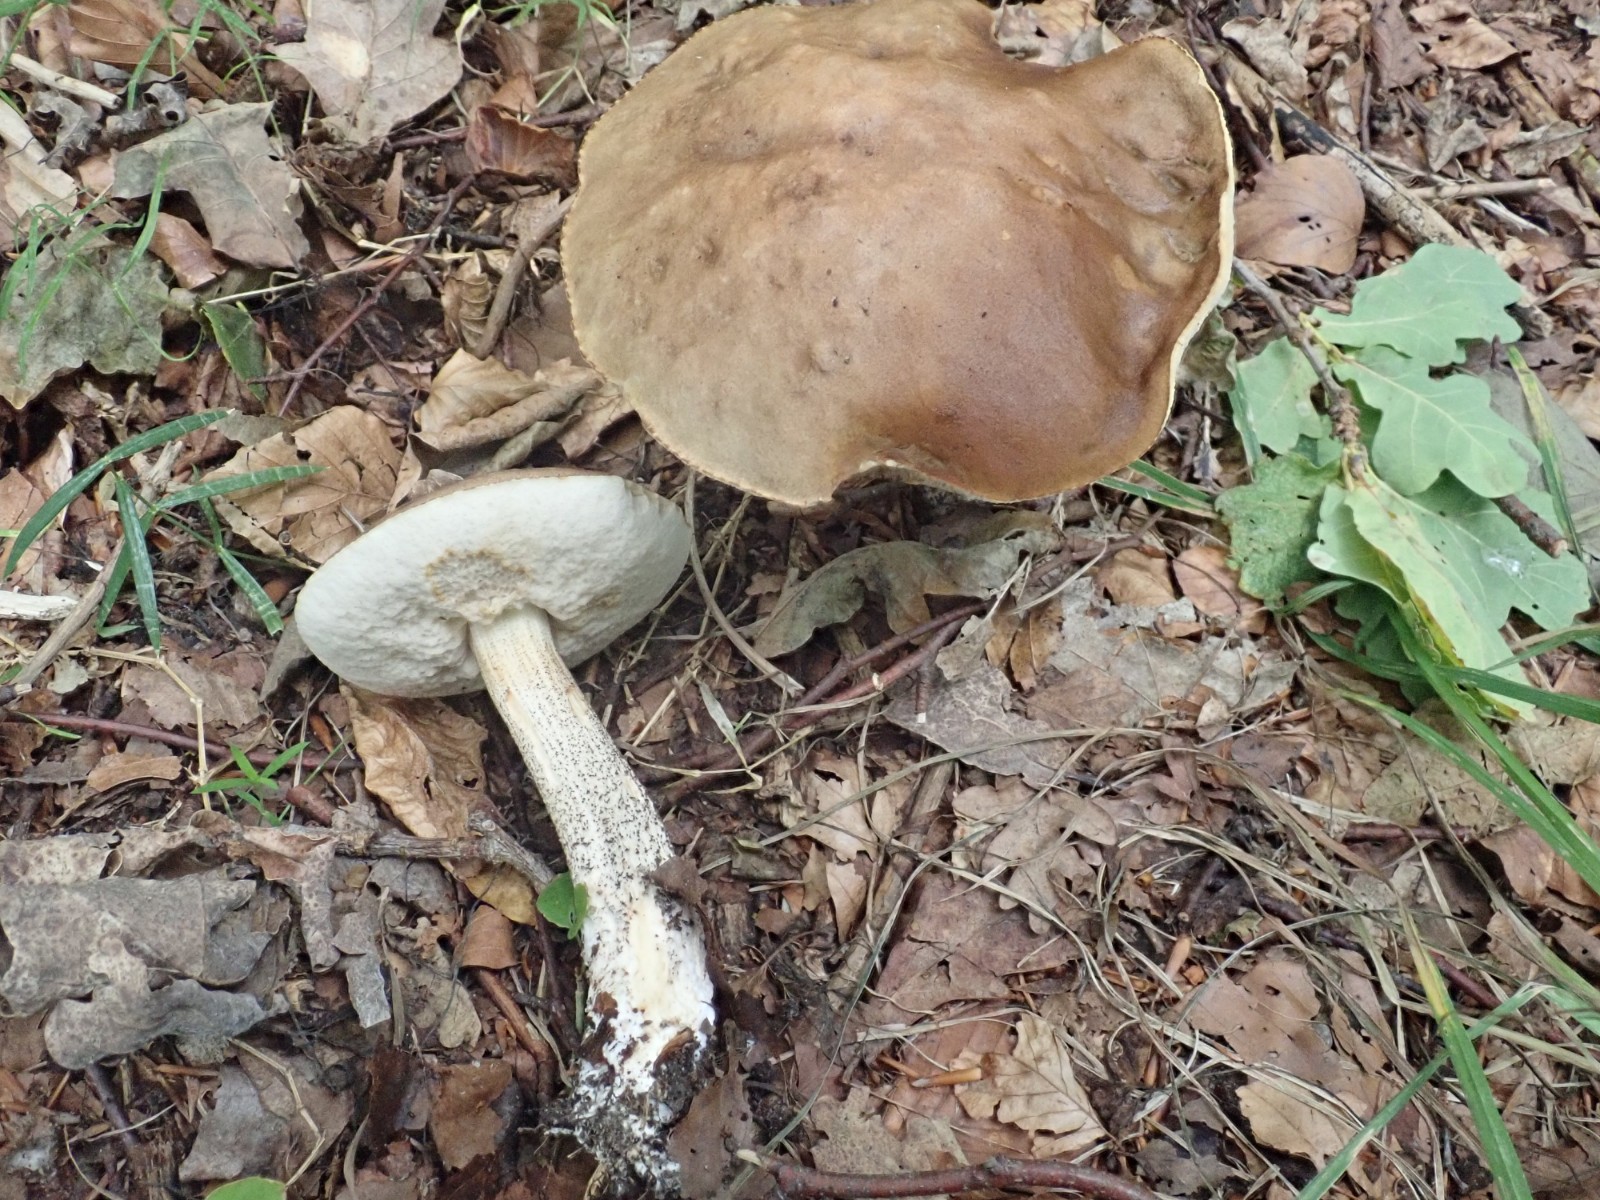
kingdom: Fungi
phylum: Basidiomycota
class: Agaricomycetes
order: Boletales
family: Boletaceae
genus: Leccinum
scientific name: Leccinum scabrum
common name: brun skælrørhat
